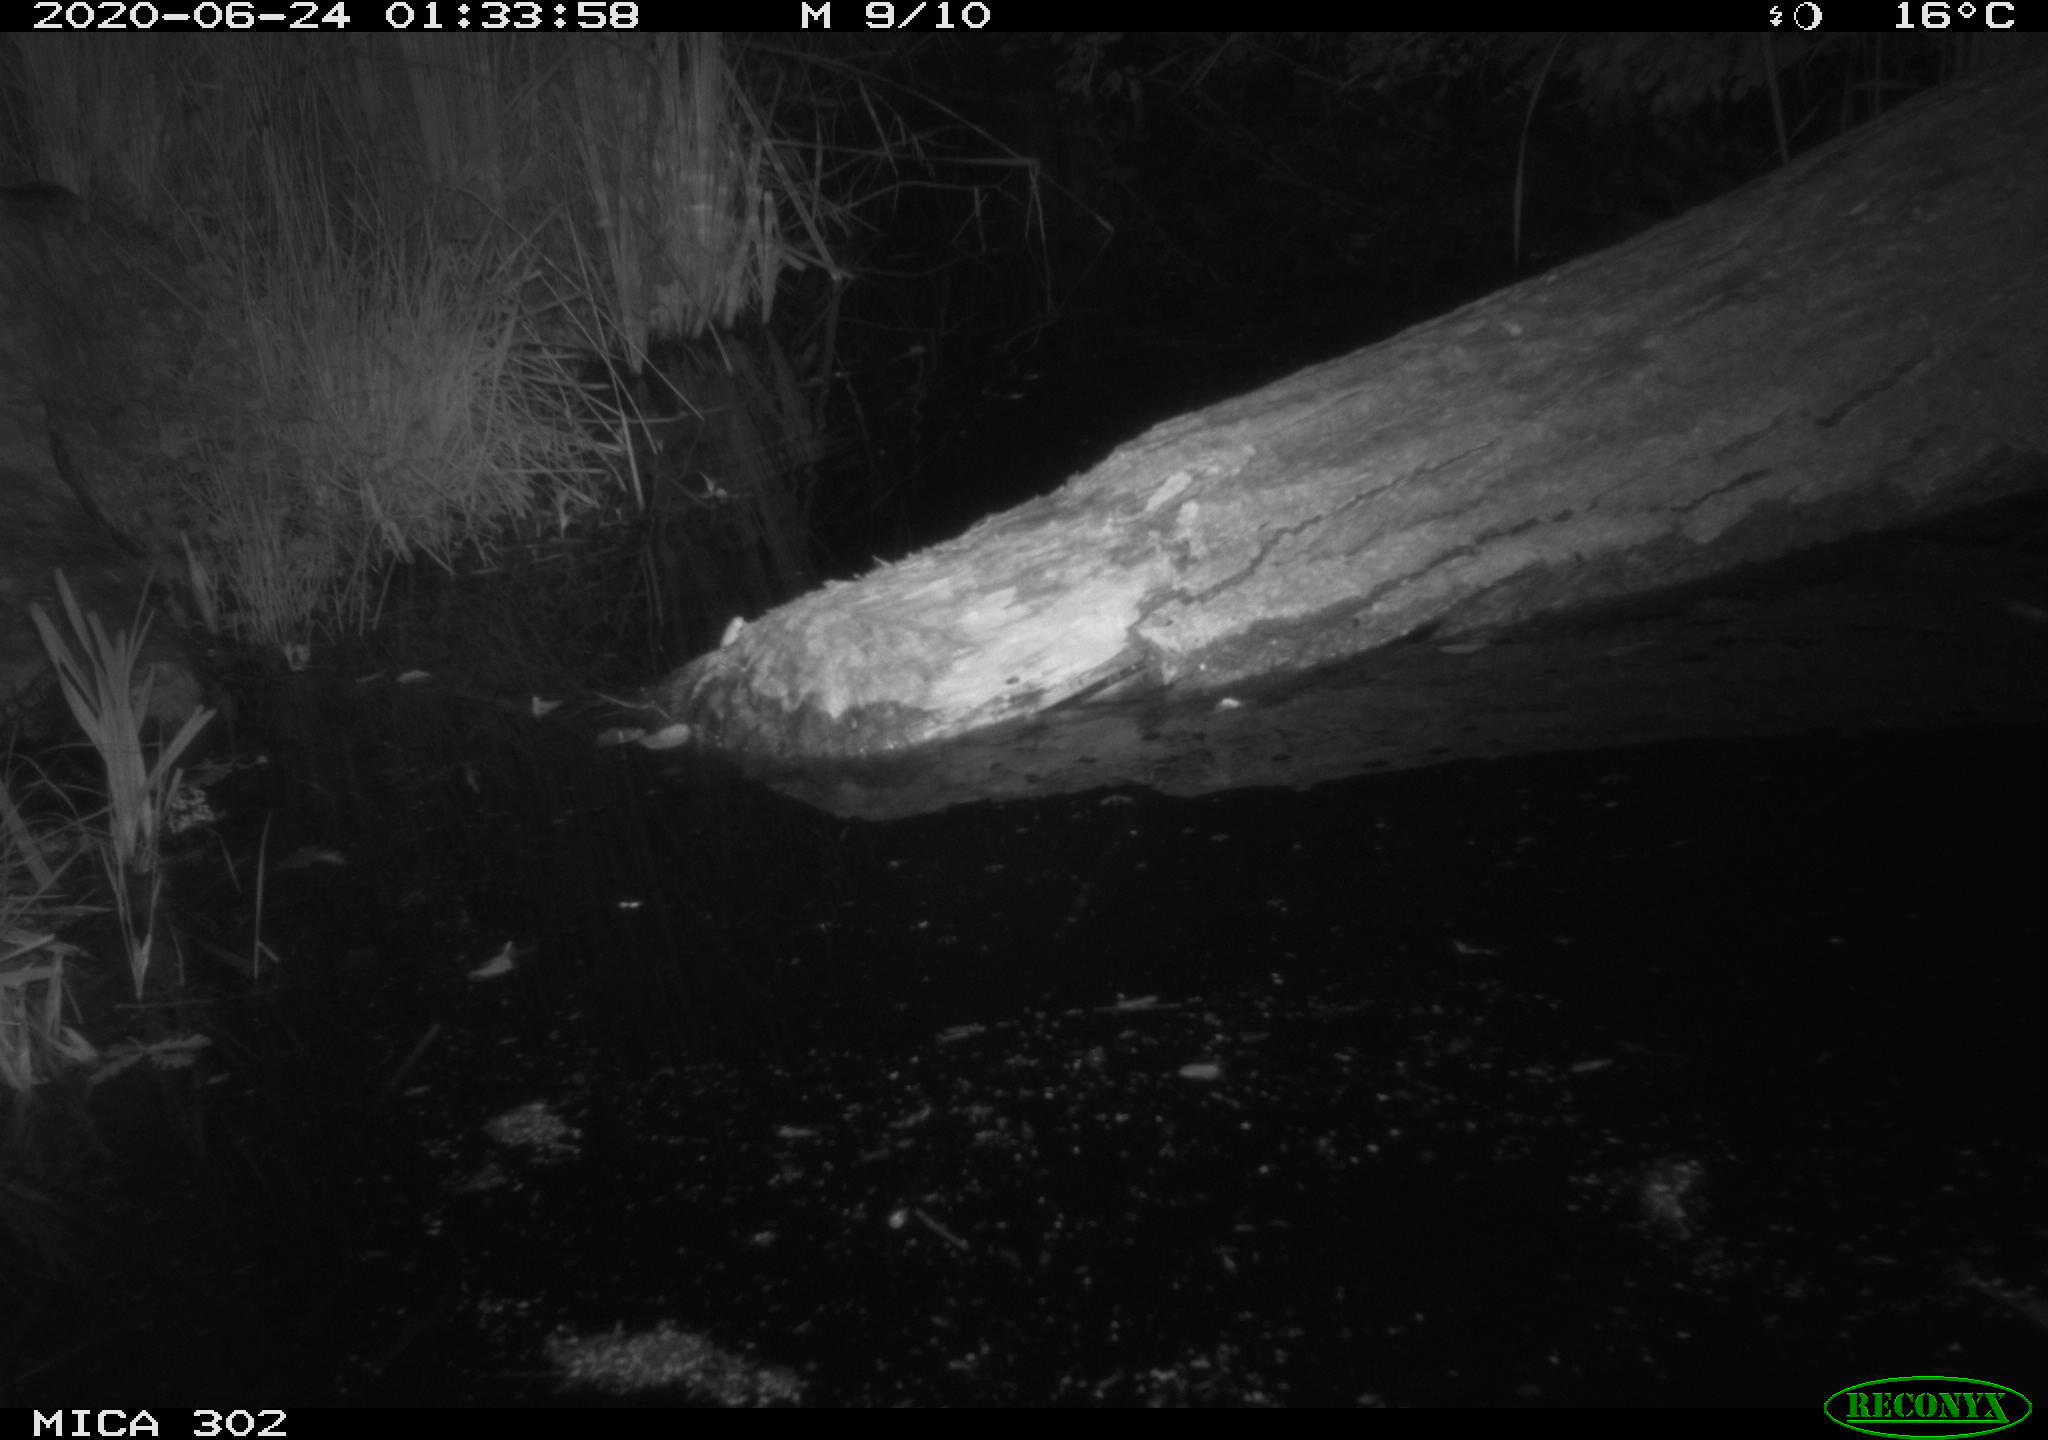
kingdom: Animalia
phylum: Chordata
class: Mammalia
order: Carnivora
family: Mustelidae
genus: Mustela
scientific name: Mustela putorius
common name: European polecat
